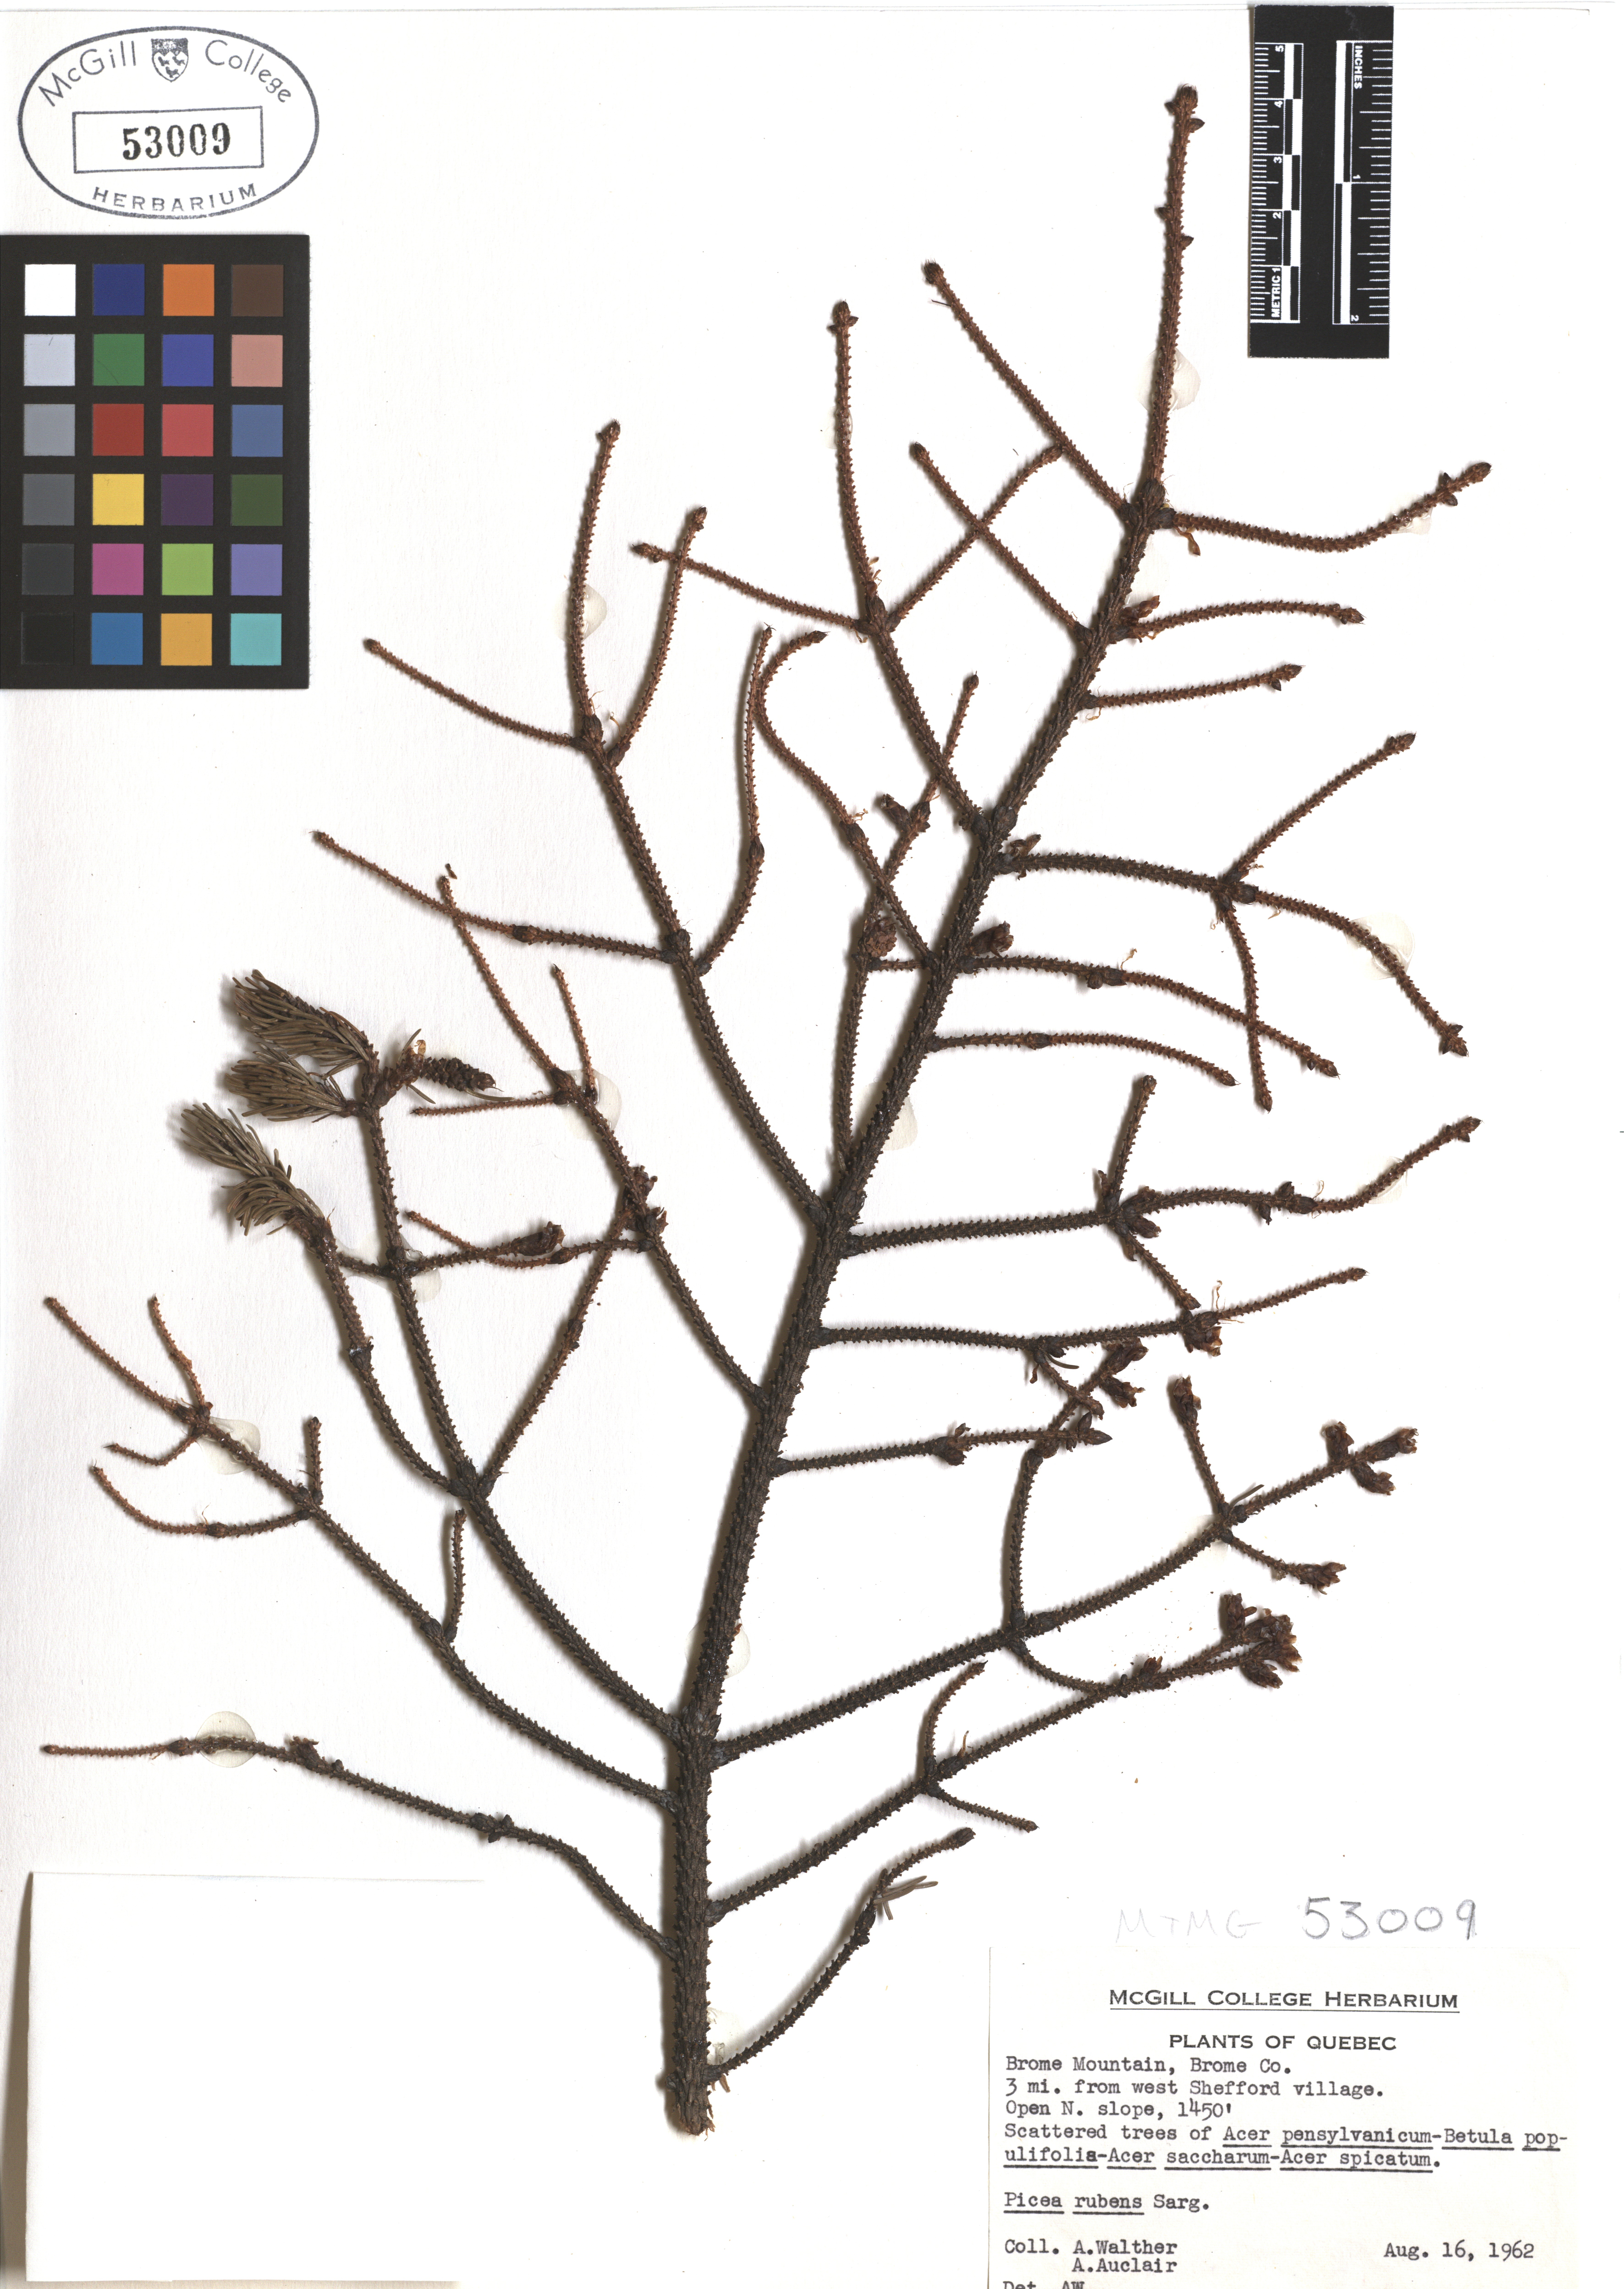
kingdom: Plantae
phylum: Tracheophyta
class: Pinopsida
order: Pinales
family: Pinaceae
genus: Picea
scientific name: Picea rubens
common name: Red spruce
